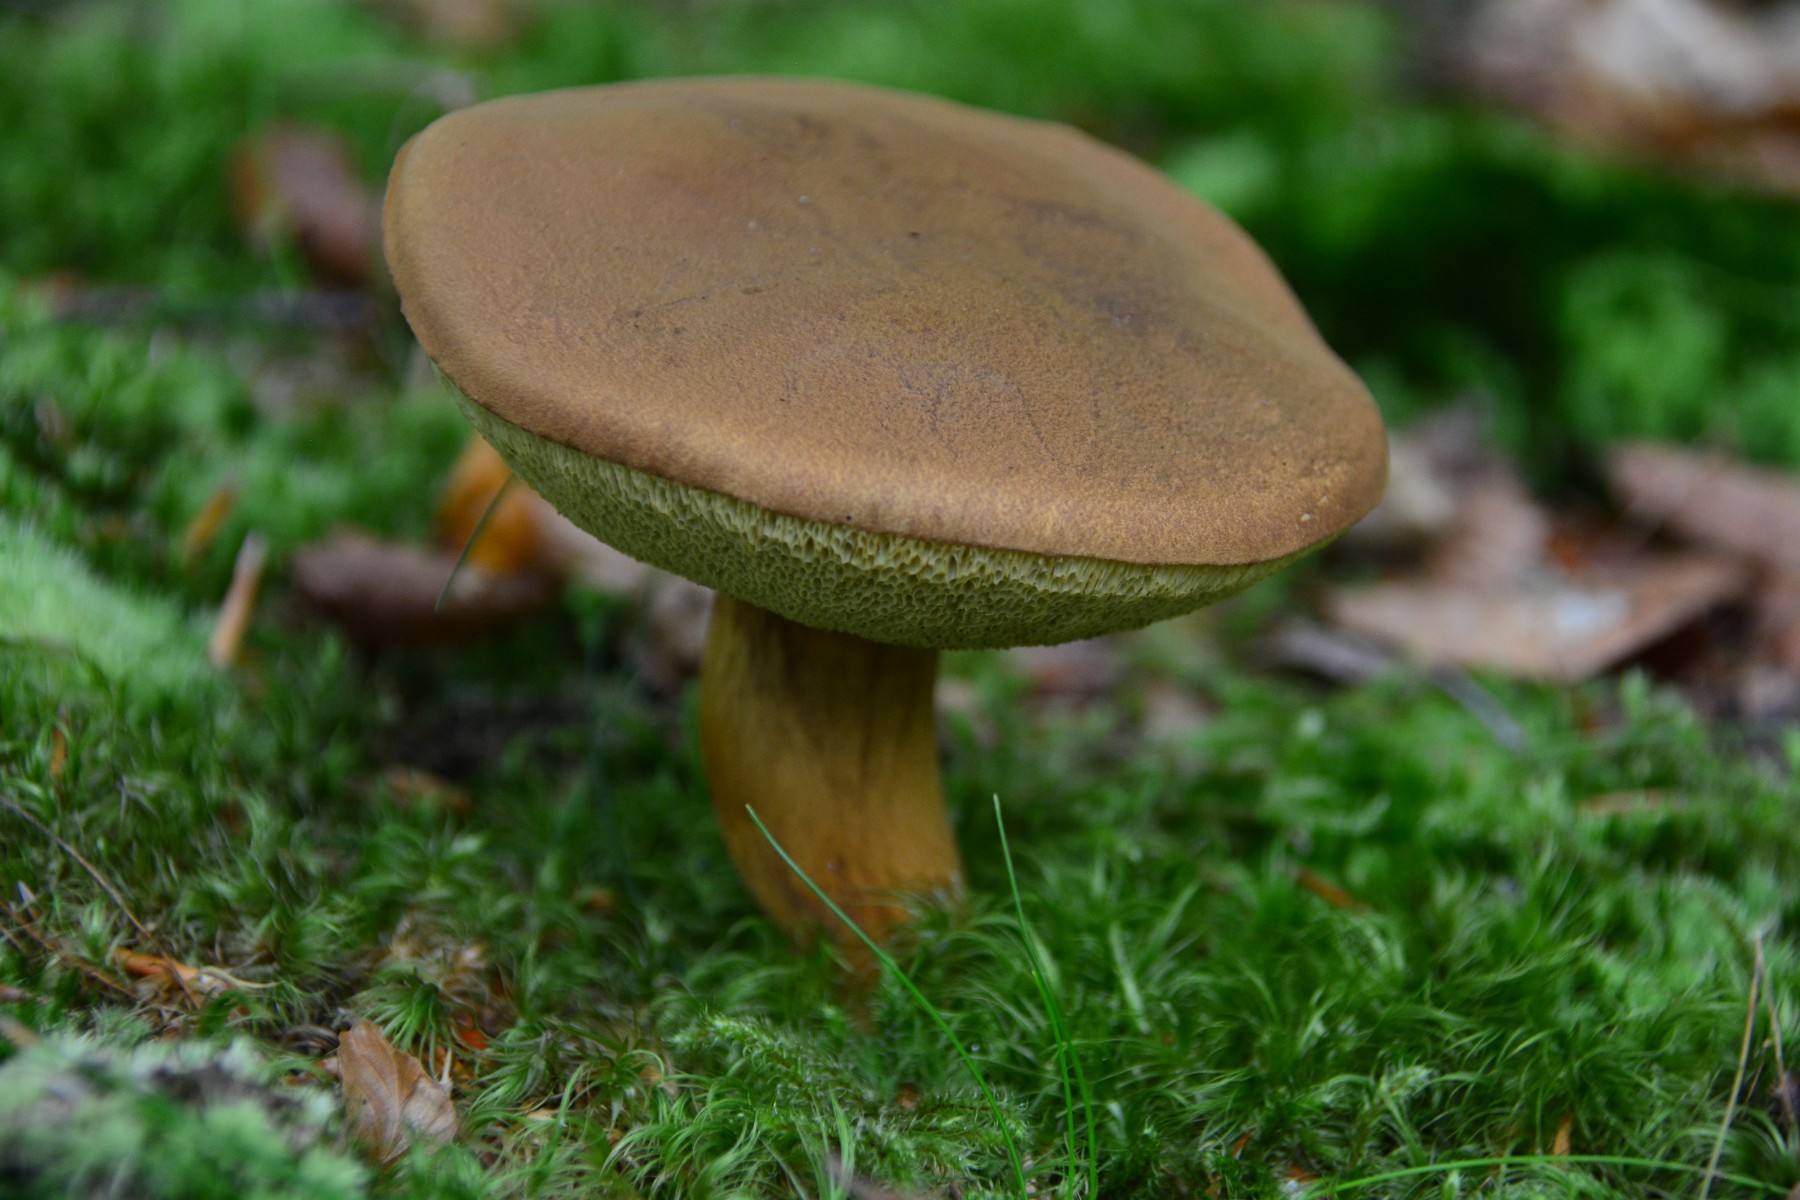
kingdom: Fungi
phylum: Basidiomycota
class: Agaricomycetes
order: Boletales
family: Boletaceae
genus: Imleria
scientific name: Imleria badia
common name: brunstokket rørhat
